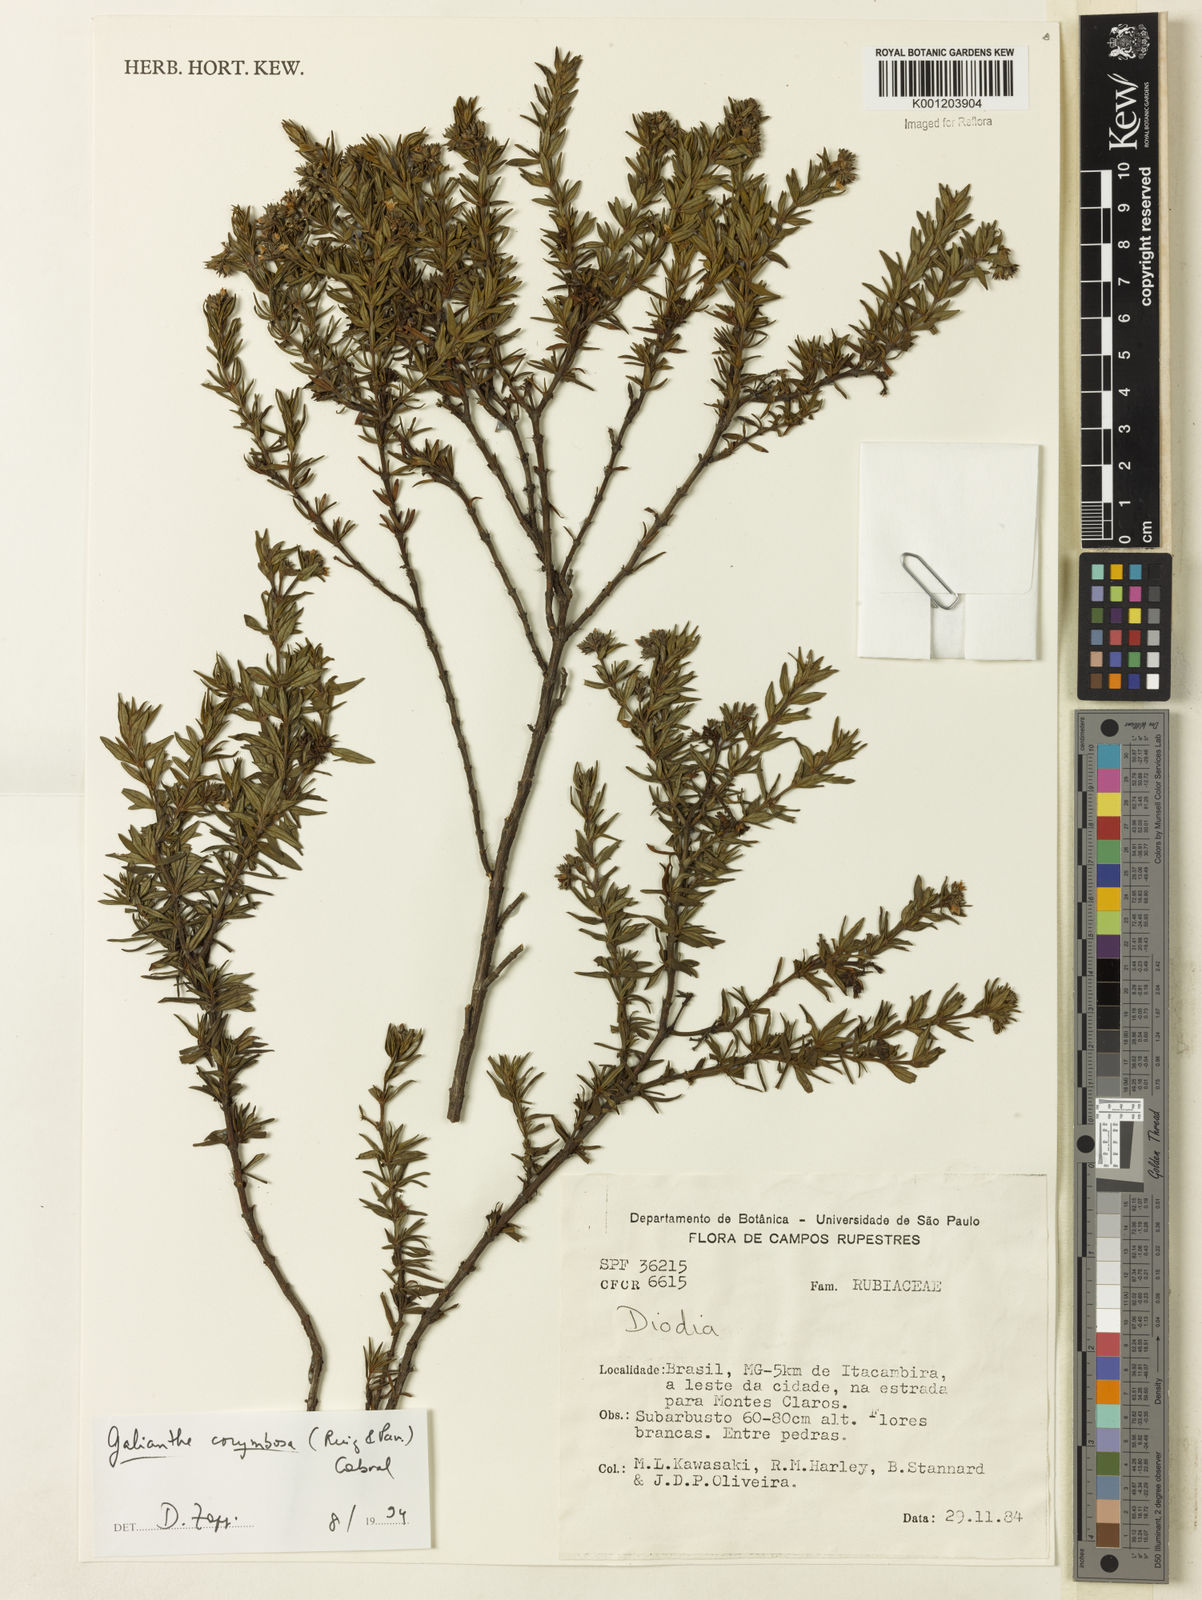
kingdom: Plantae
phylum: Tracheophyta
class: Magnoliopsida
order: Gentianales
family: Rubiaceae
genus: Galianthe
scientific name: Galianthe peruviana
